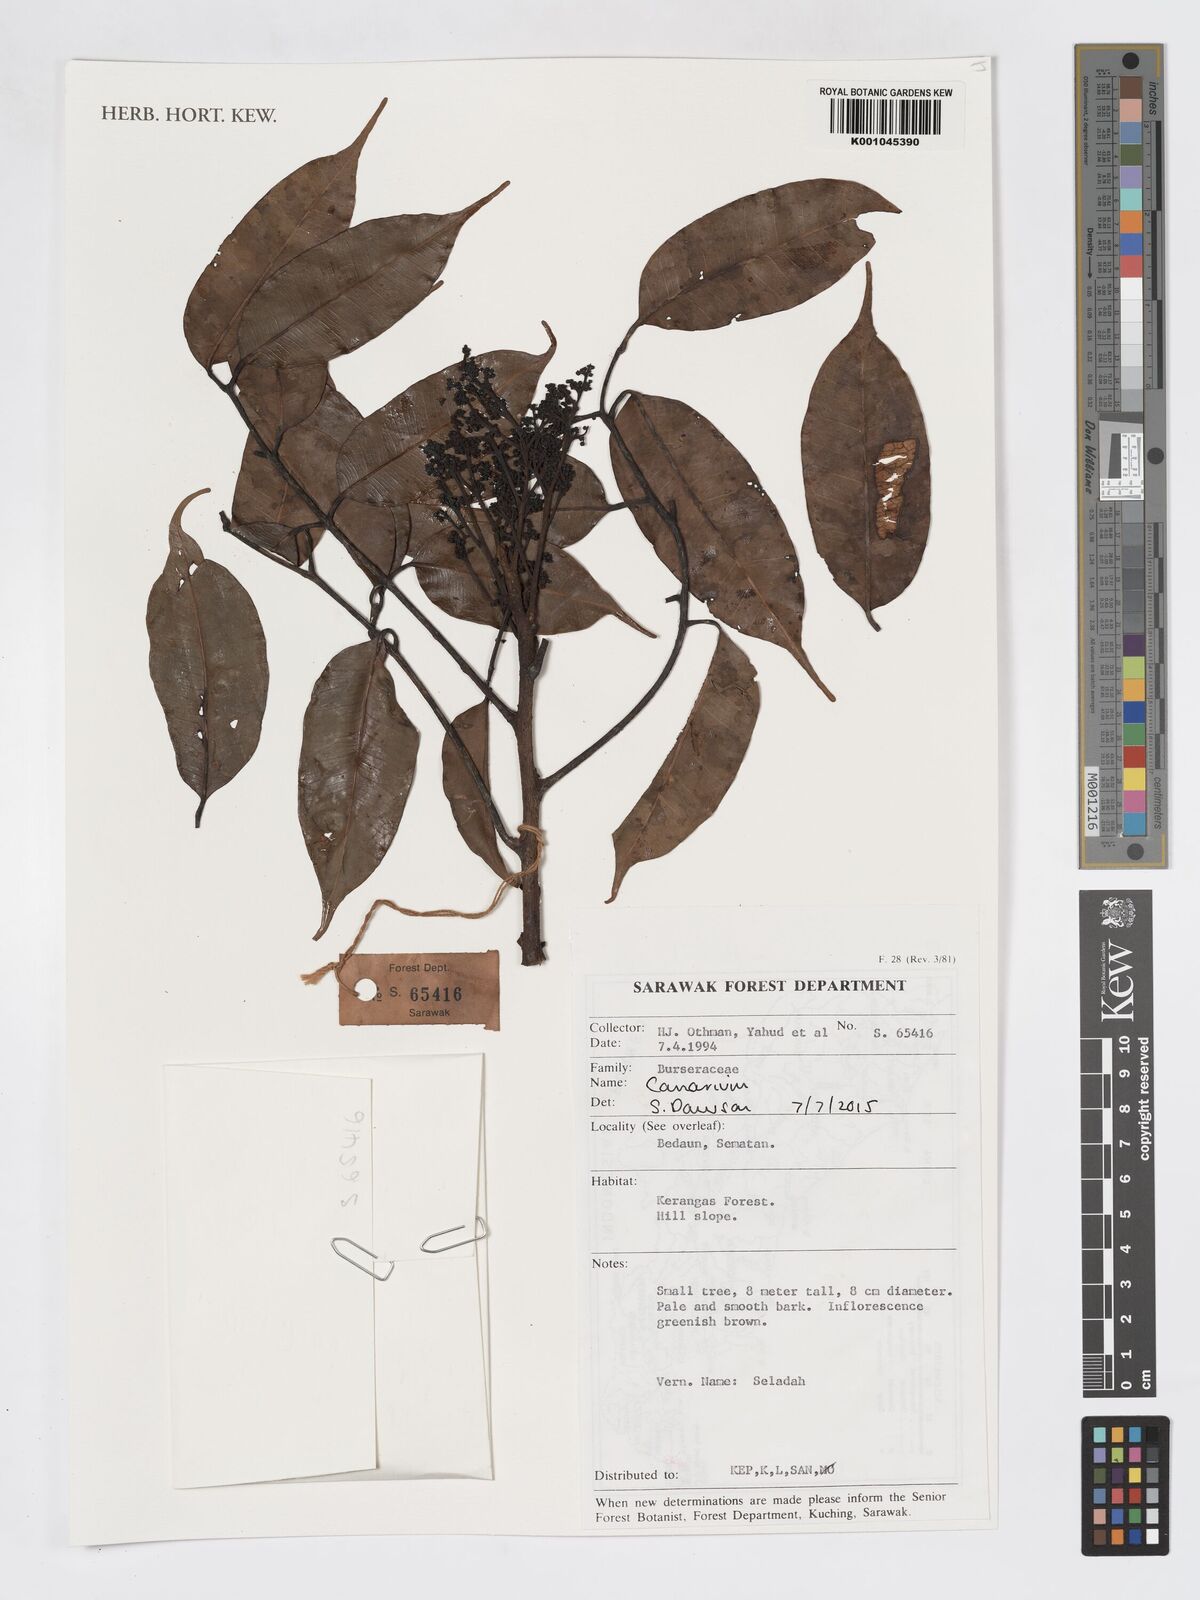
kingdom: Plantae
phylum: Tracheophyta
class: Magnoliopsida
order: Sapindales
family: Burseraceae
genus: Canarium
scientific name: Canarium
